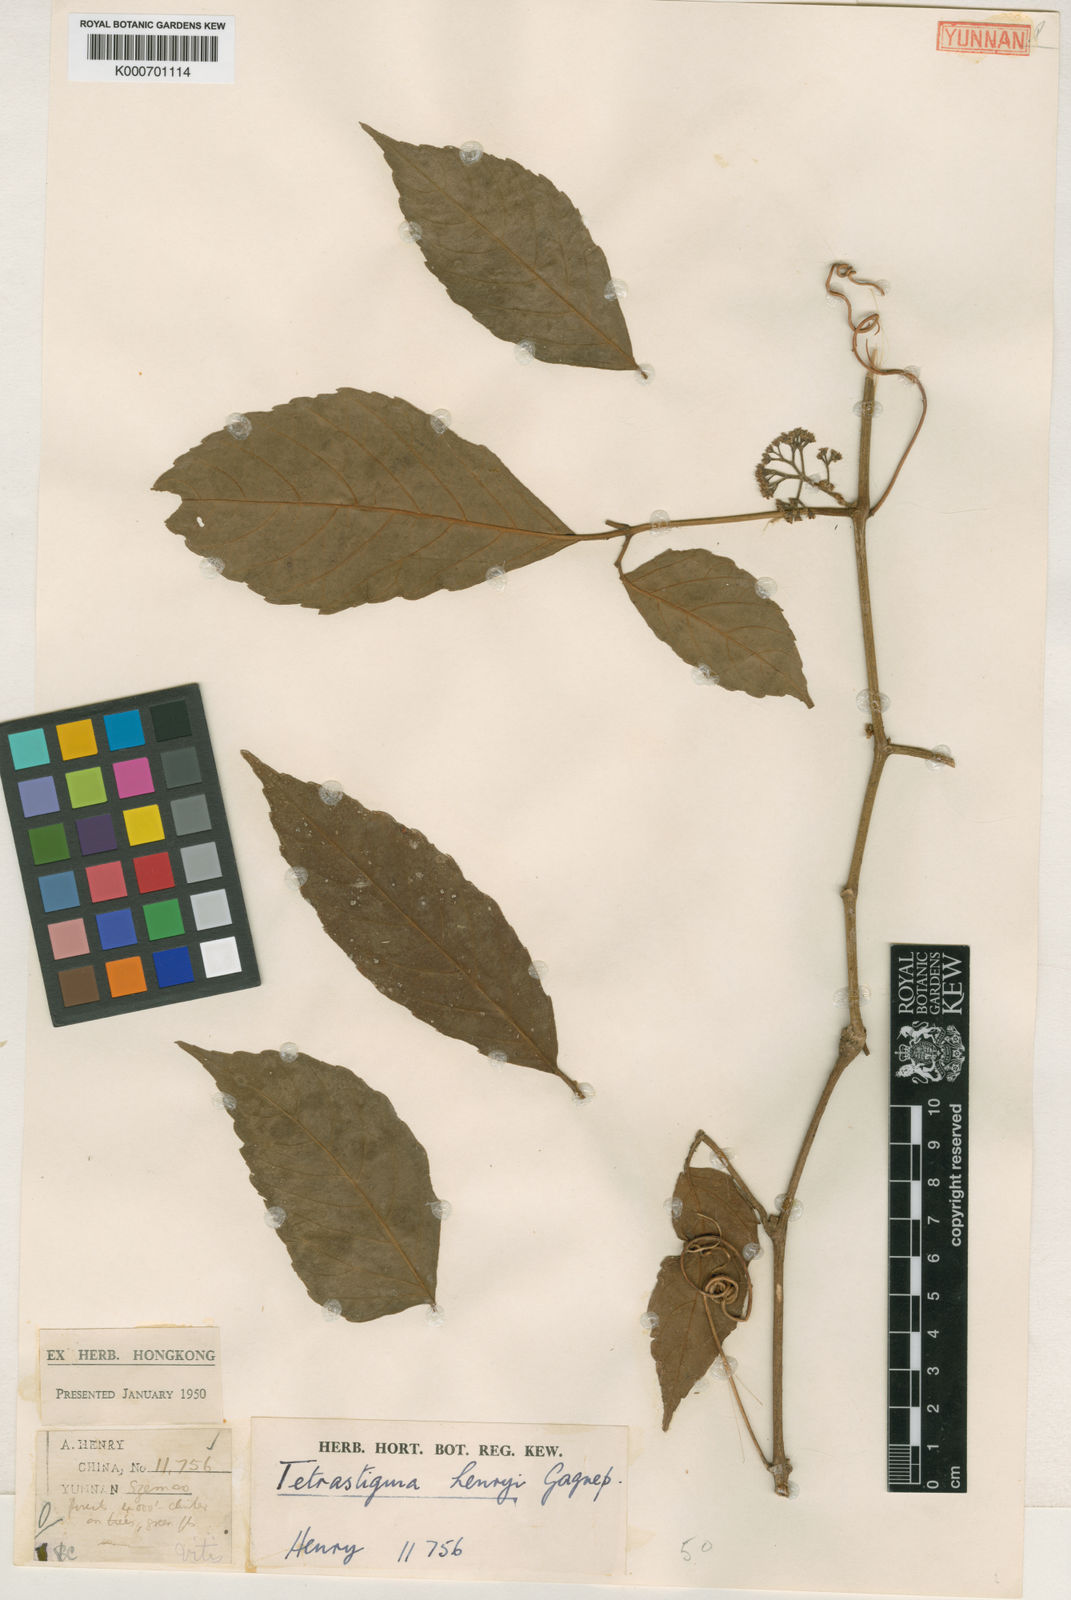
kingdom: Plantae
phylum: Tracheophyta
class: Magnoliopsida
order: Vitales
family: Vitaceae
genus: Tetrastigma
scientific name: Tetrastigma dubium
